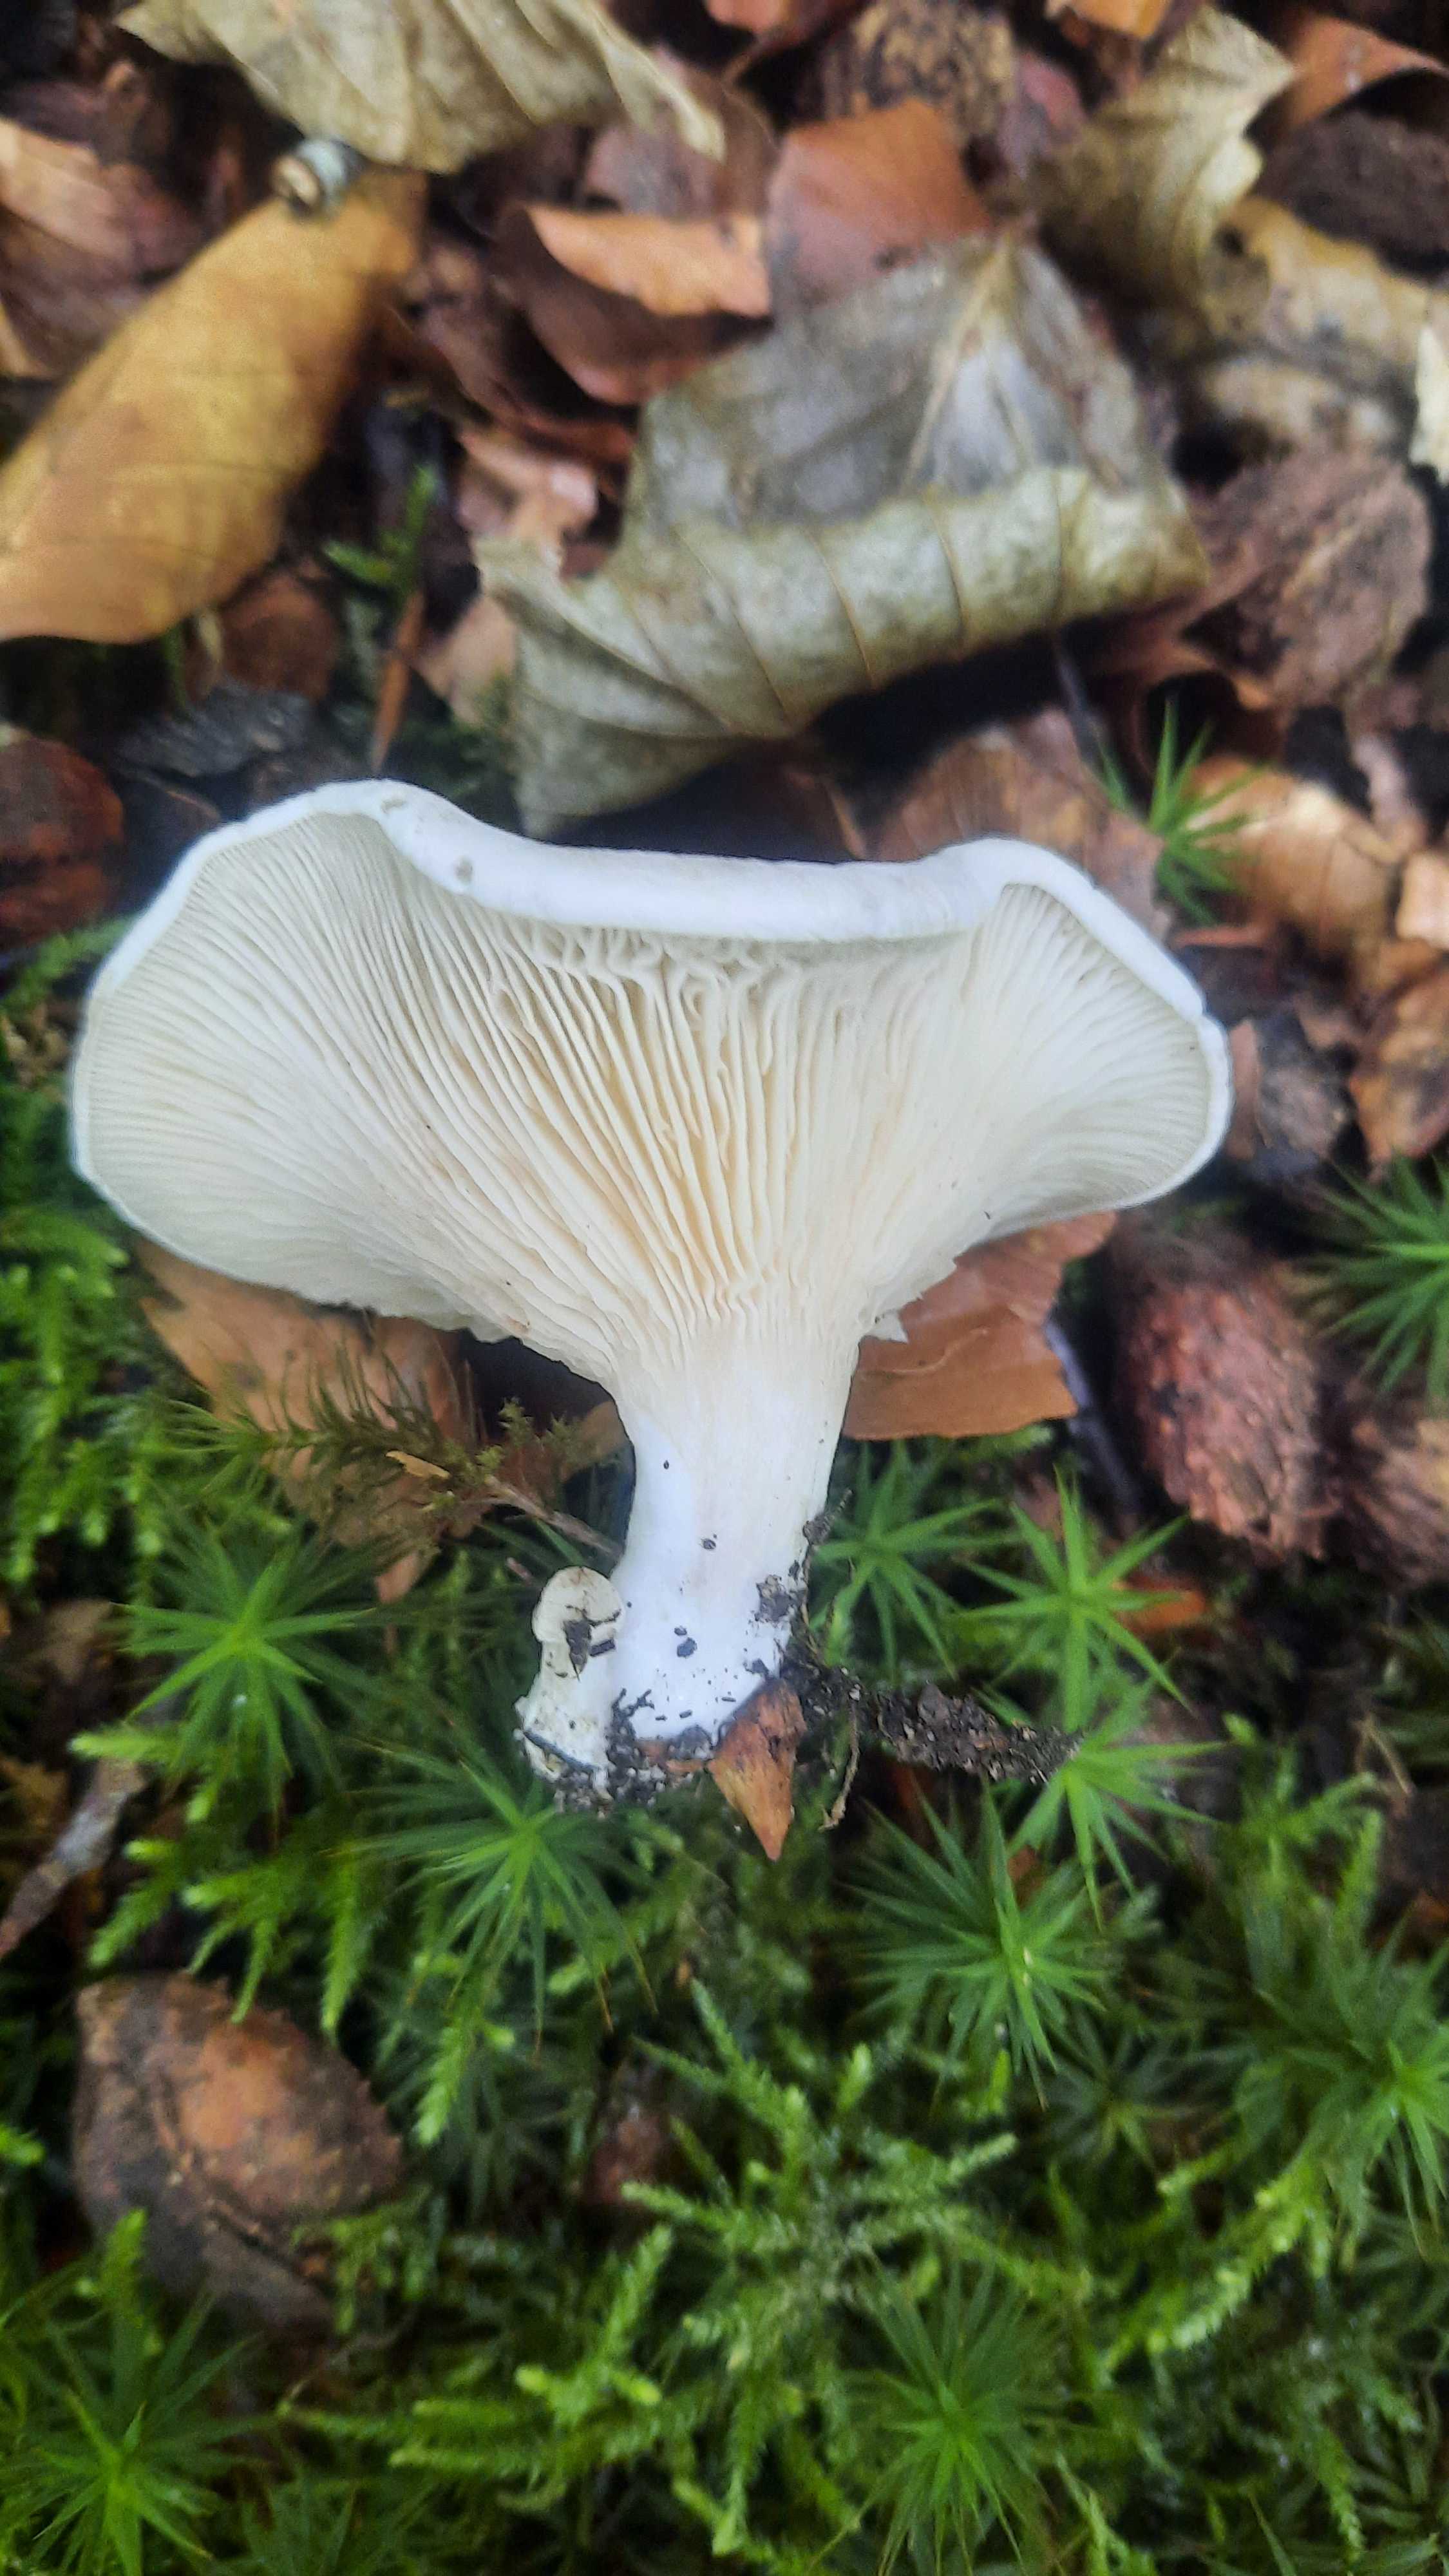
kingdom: Fungi
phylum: Basidiomycota
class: Agaricomycetes
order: Agaricales
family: Entolomataceae
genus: Clitopilus
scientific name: Clitopilus prunulus
